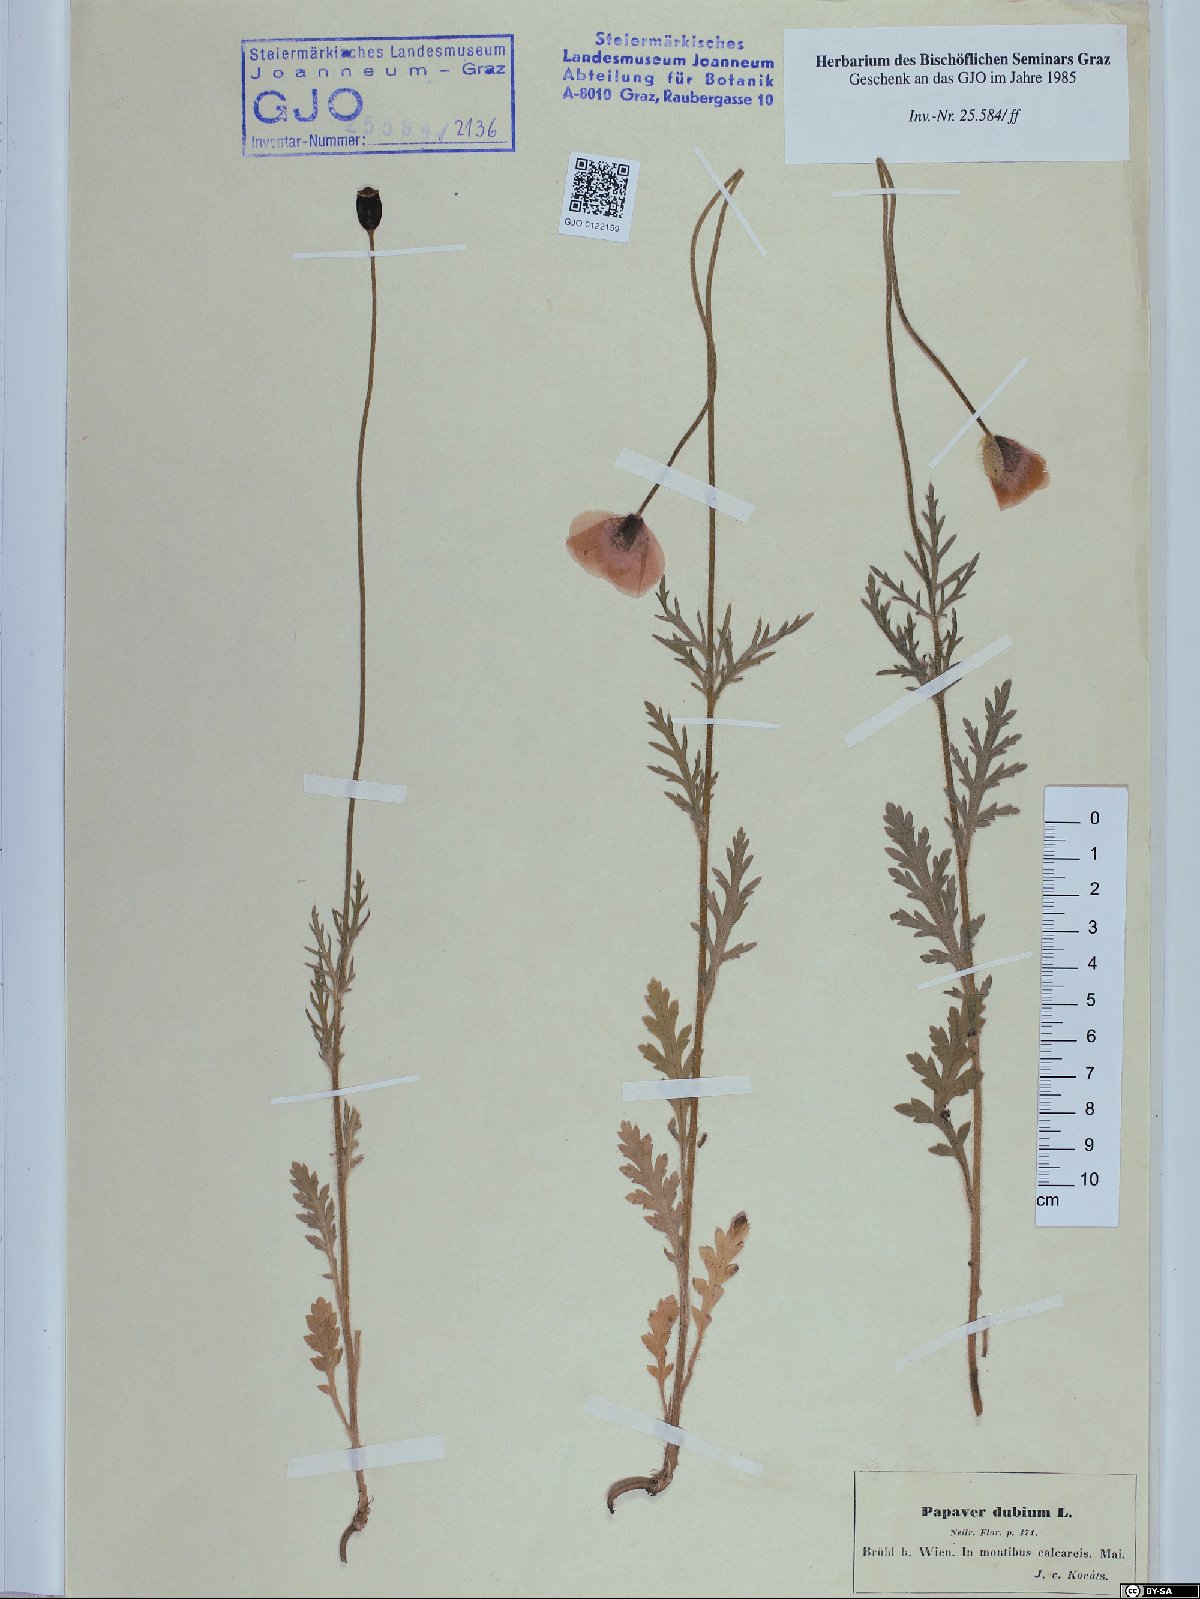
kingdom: Plantae
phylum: Tracheophyta
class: Magnoliopsida
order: Ranunculales
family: Papaveraceae
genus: Papaver
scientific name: Papaver dubium
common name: Long-headed poppy
